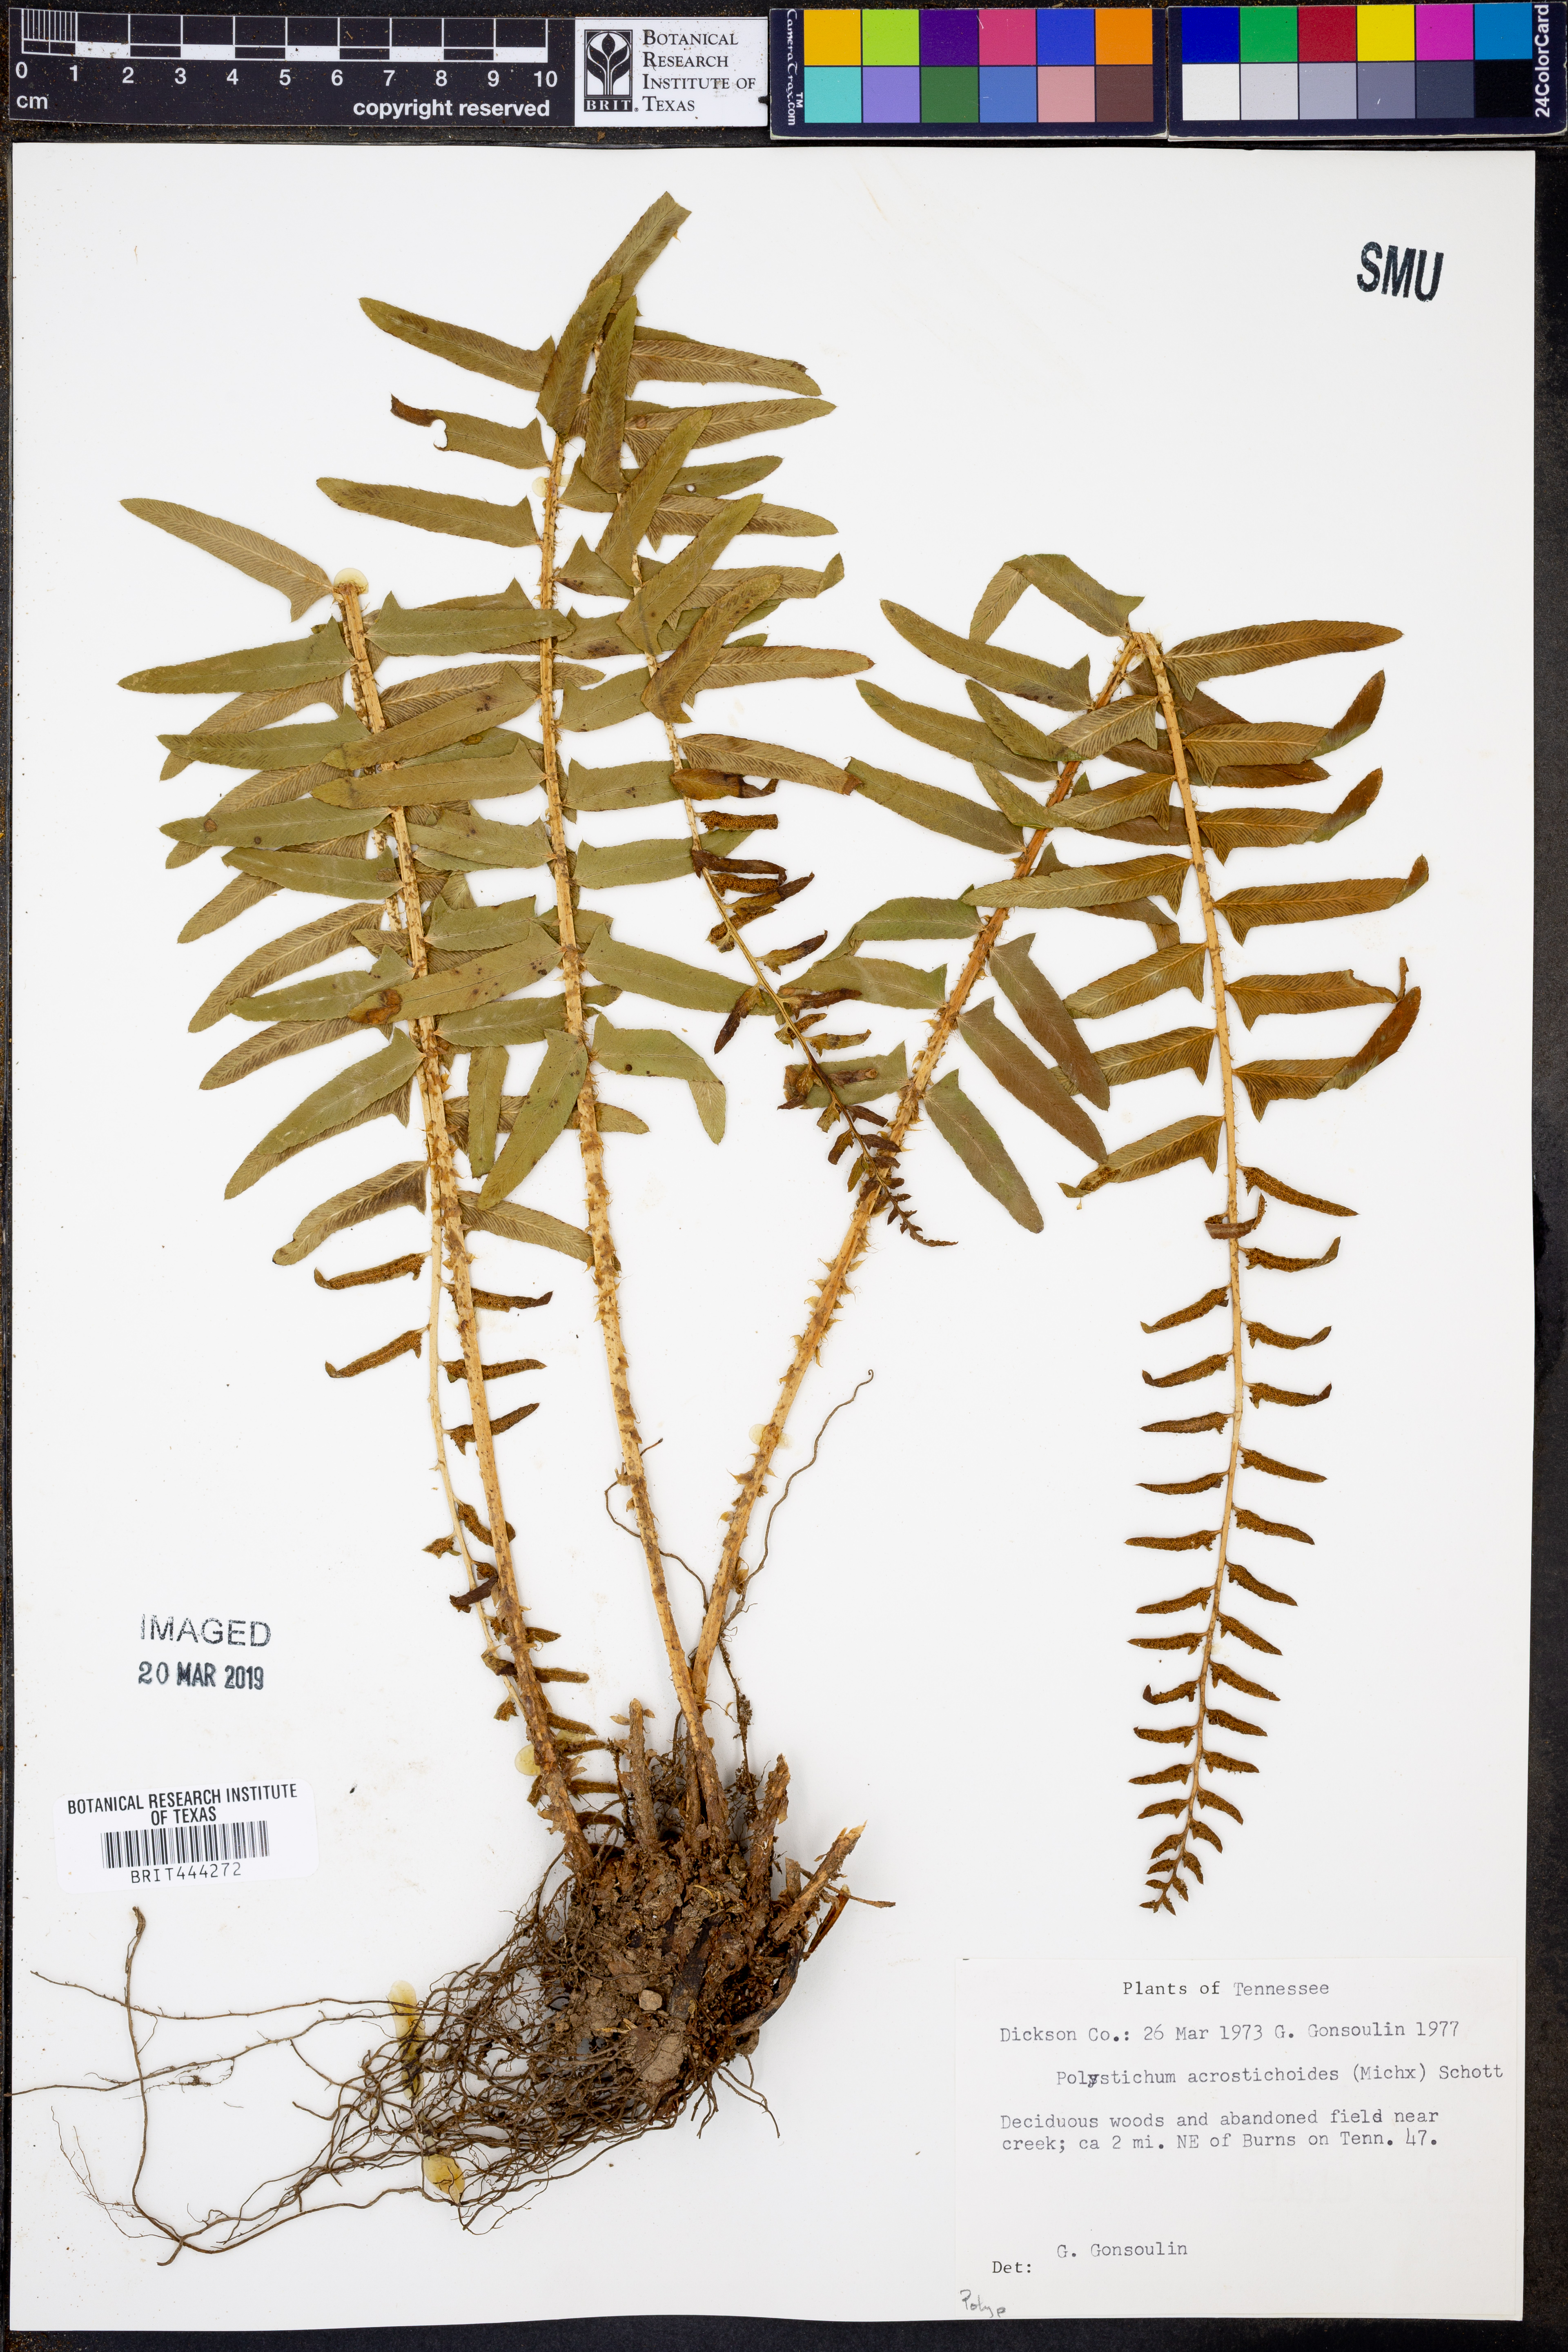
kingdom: Plantae
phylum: Tracheophyta
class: Polypodiopsida
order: Polypodiales
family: Dryopteridaceae
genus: Polystichum
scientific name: Polystichum acrostichoides
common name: Christmas fern
